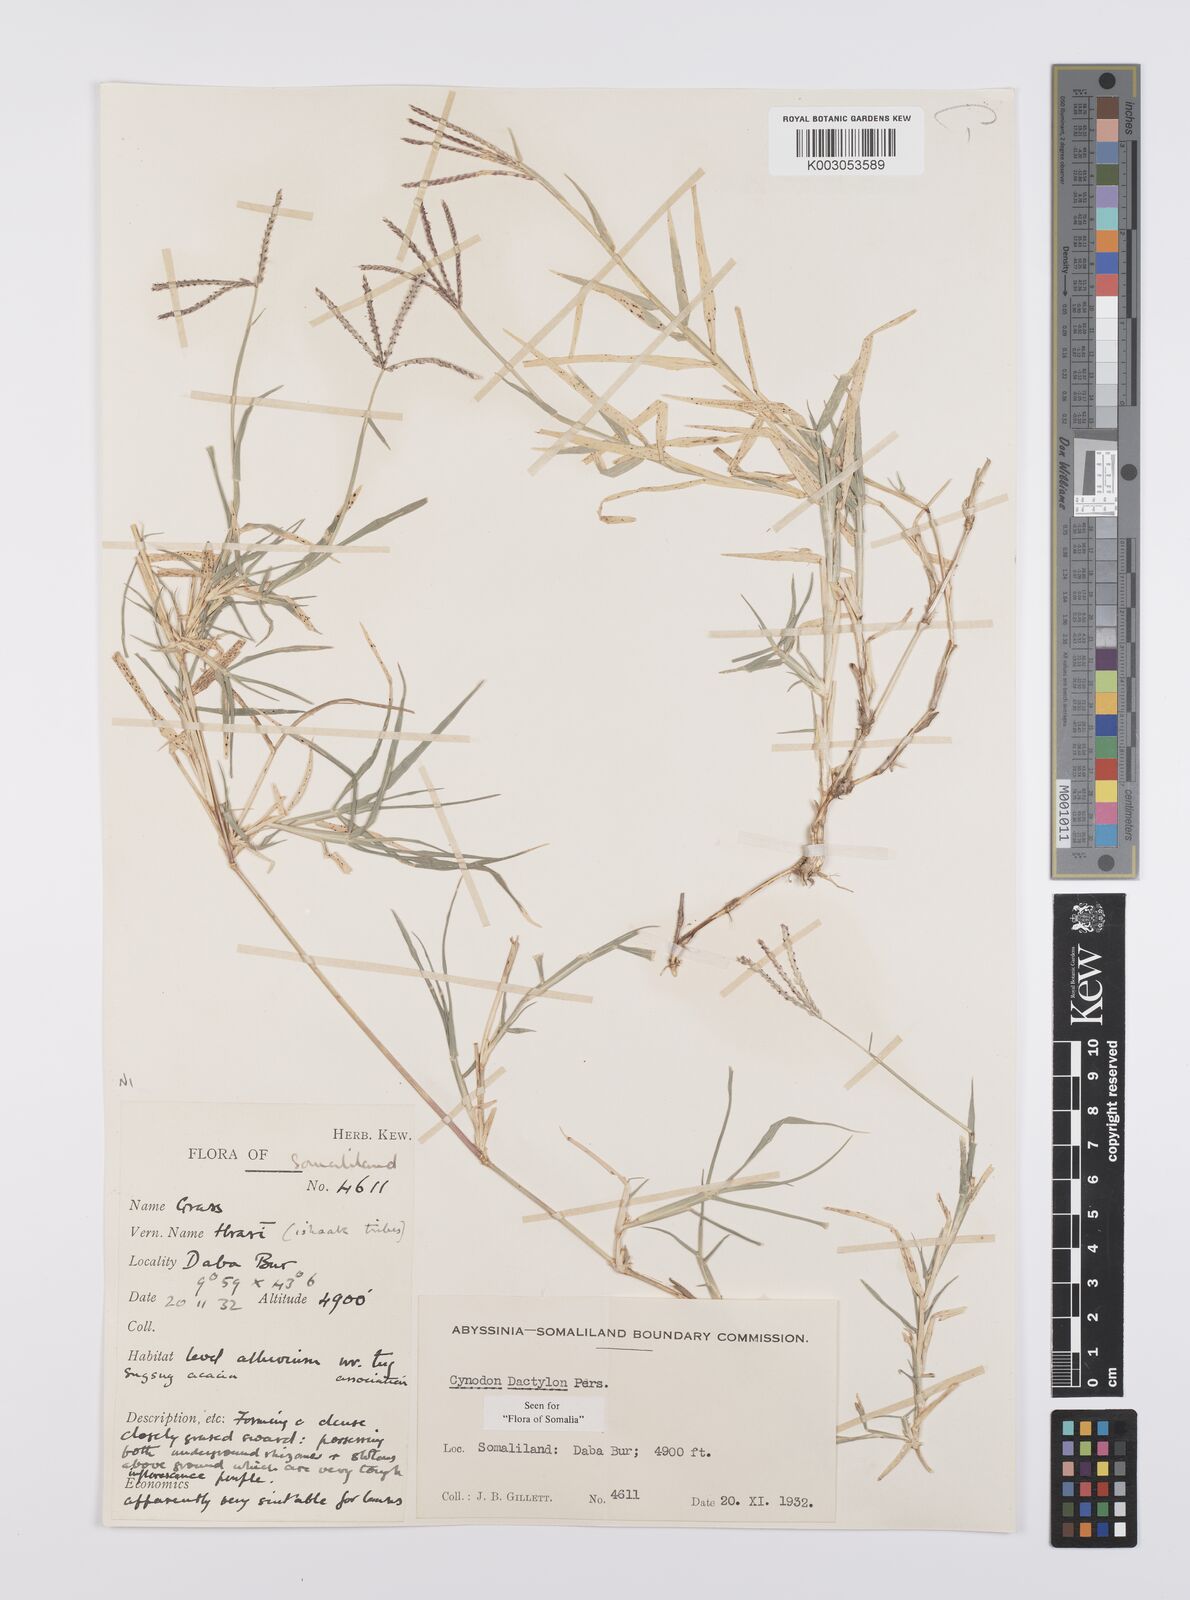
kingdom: Plantae
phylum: Tracheophyta
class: Liliopsida
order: Poales
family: Poaceae
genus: Cynodon
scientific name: Cynodon dactylon
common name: Bermuda grass
